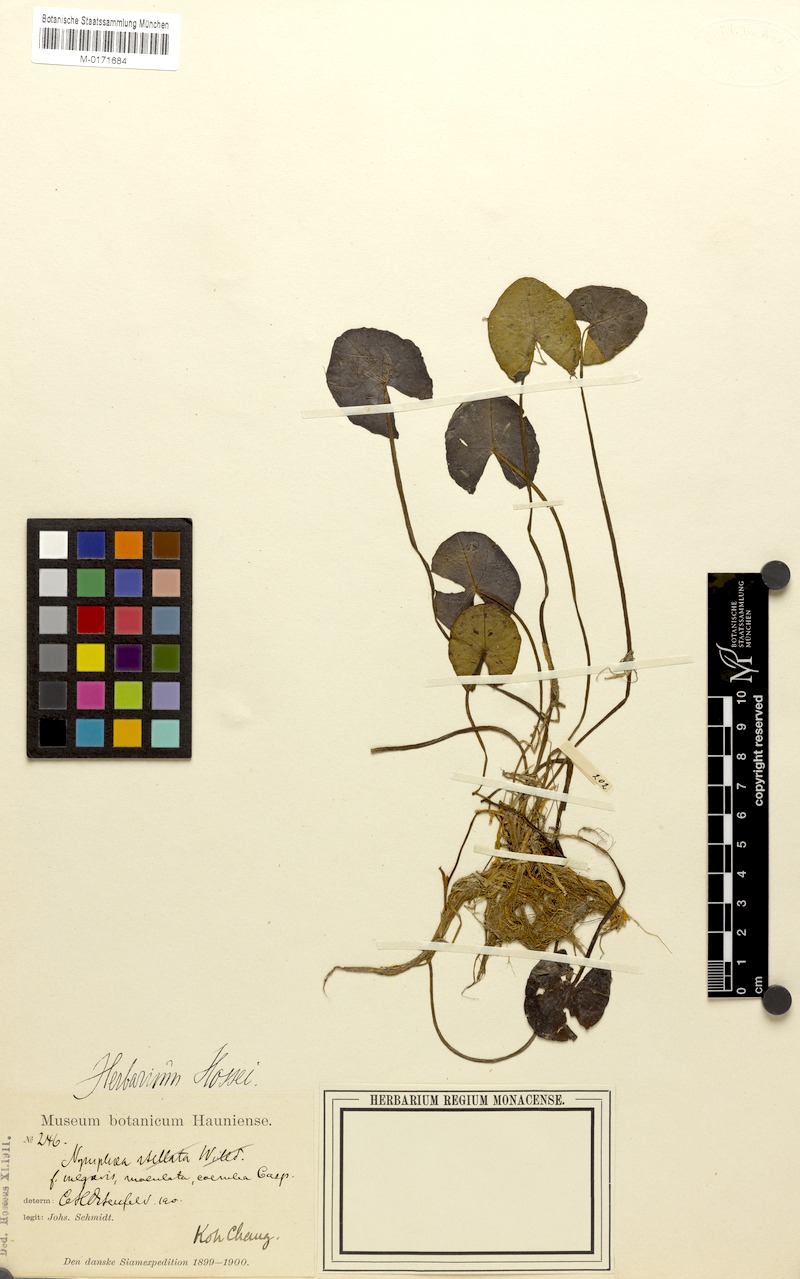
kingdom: Plantae
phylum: Tracheophyta
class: Magnoliopsida
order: Nymphaeales
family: Nymphaeaceae
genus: Nymphaea
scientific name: Nymphaea tetragona
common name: Pygmy water-lily
